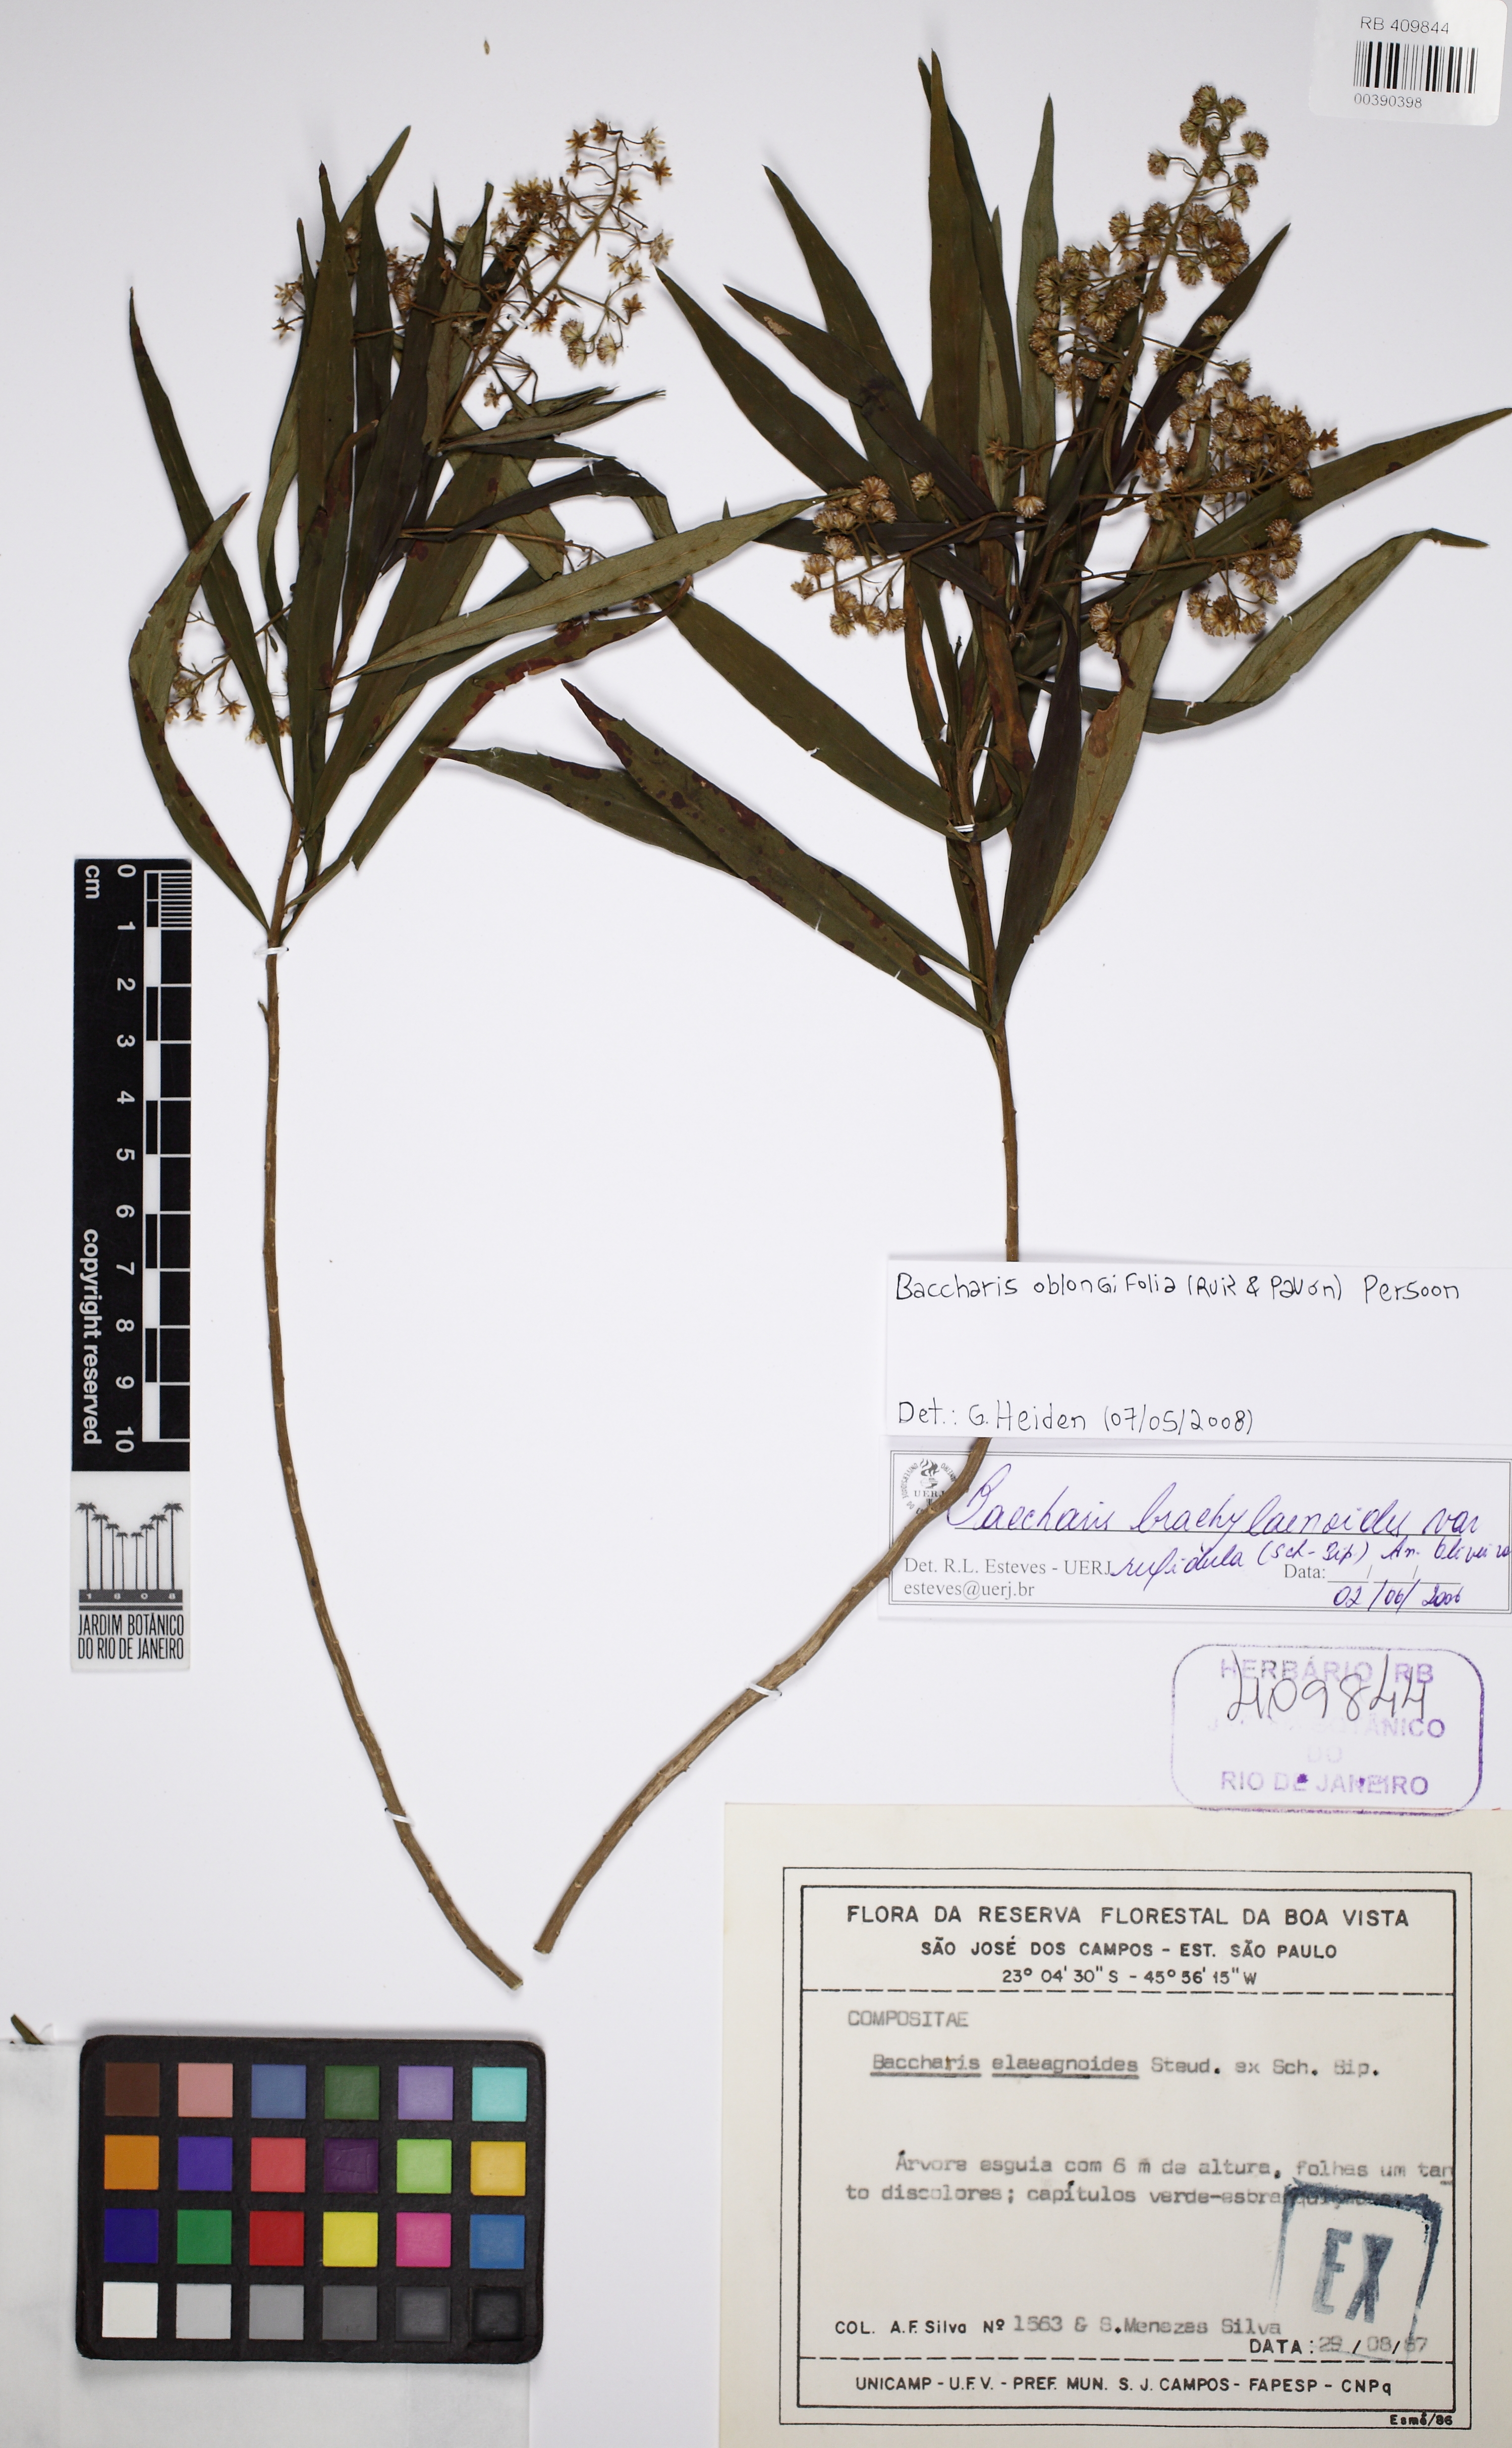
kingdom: Plantae
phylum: Tracheophyta
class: Magnoliopsida
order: Asterales
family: Asteraceae
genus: Baccharis
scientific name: Baccharis oblongifolia
